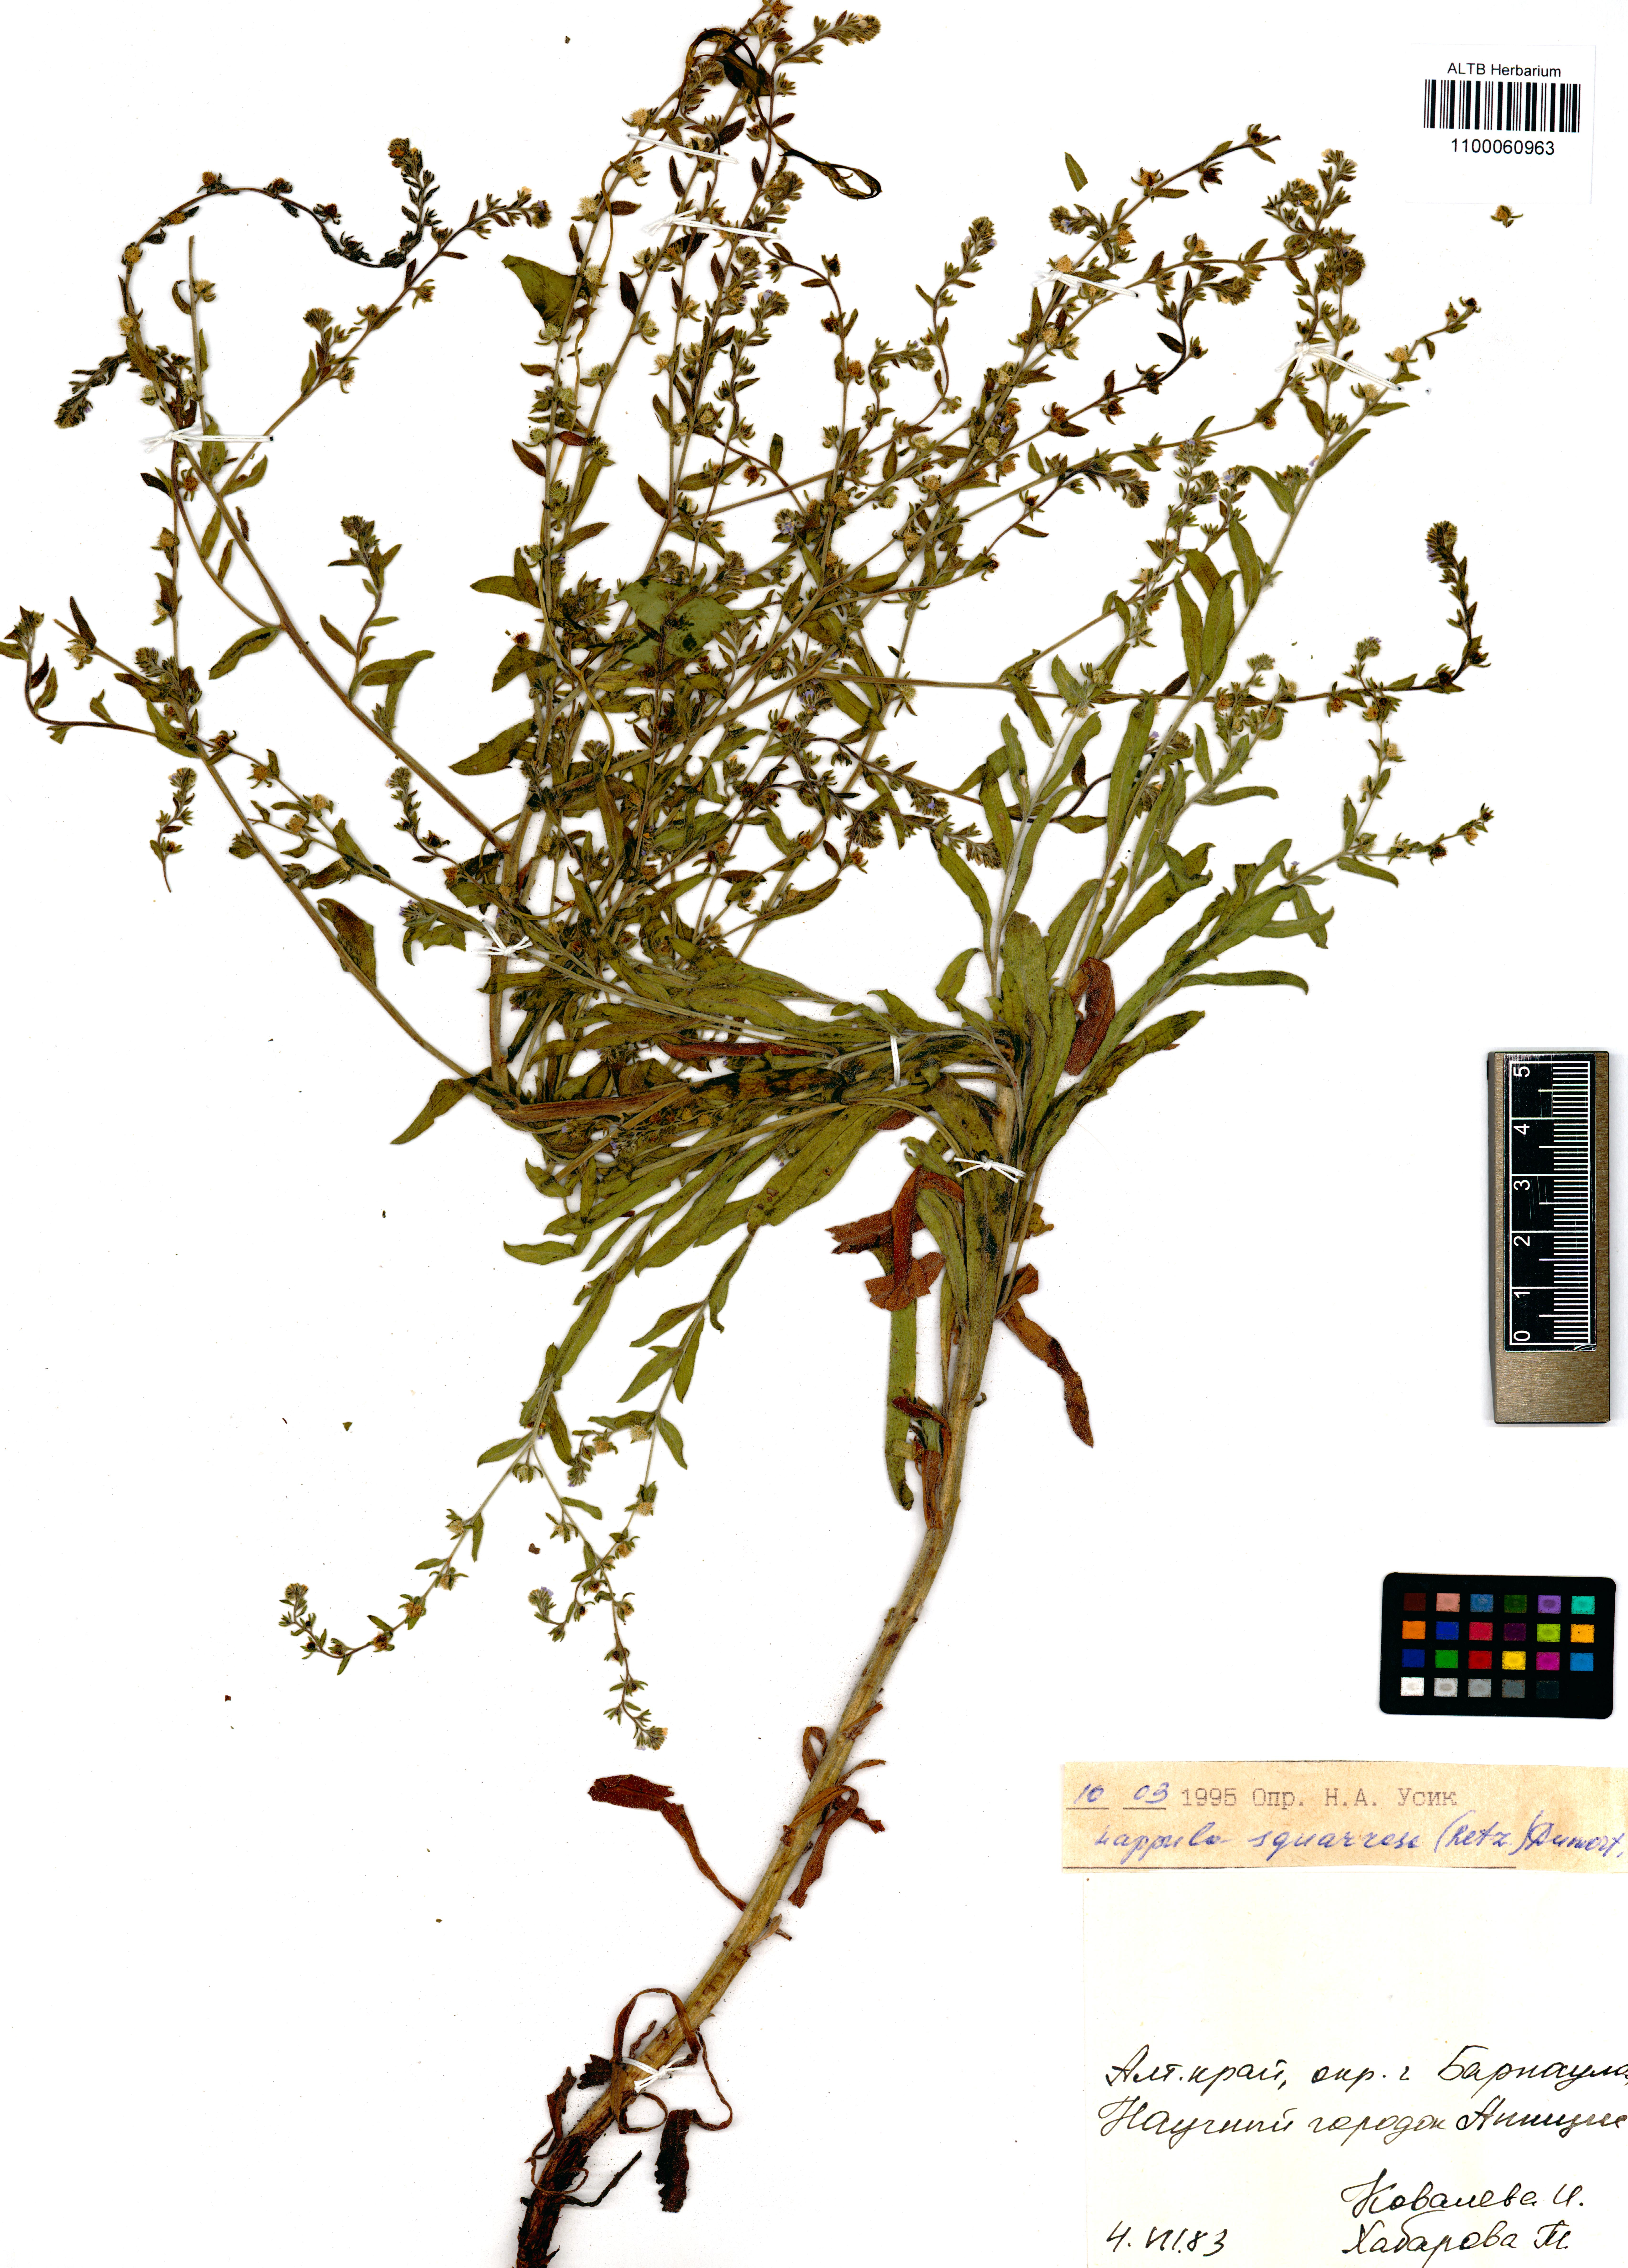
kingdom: Plantae
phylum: Tracheophyta
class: Magnoliopsida
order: Boraginales
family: Boraginaceae
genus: Lappula
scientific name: Lappula squarrosa
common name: European stickseed
